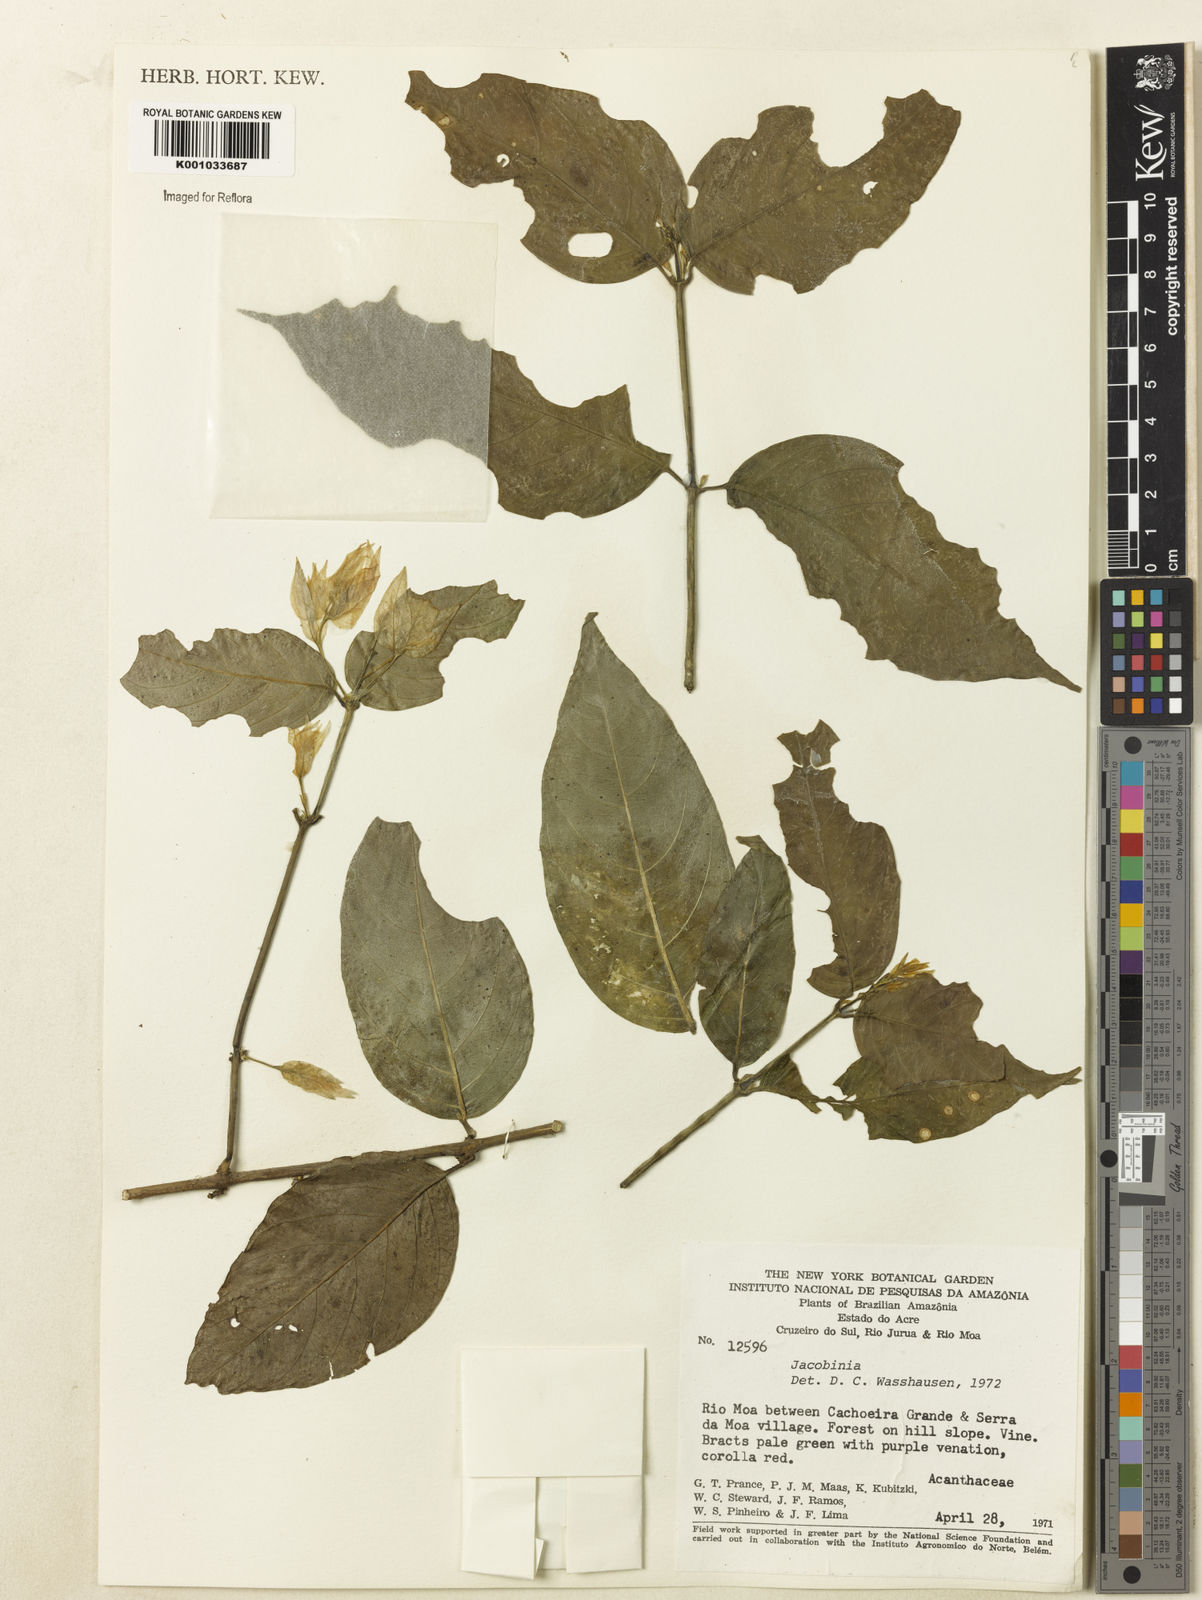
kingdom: Plantae
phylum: Tracheophyta
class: Magnoliopsida
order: Lamiales
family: Acanthaceae
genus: Justicia
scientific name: Justicia
